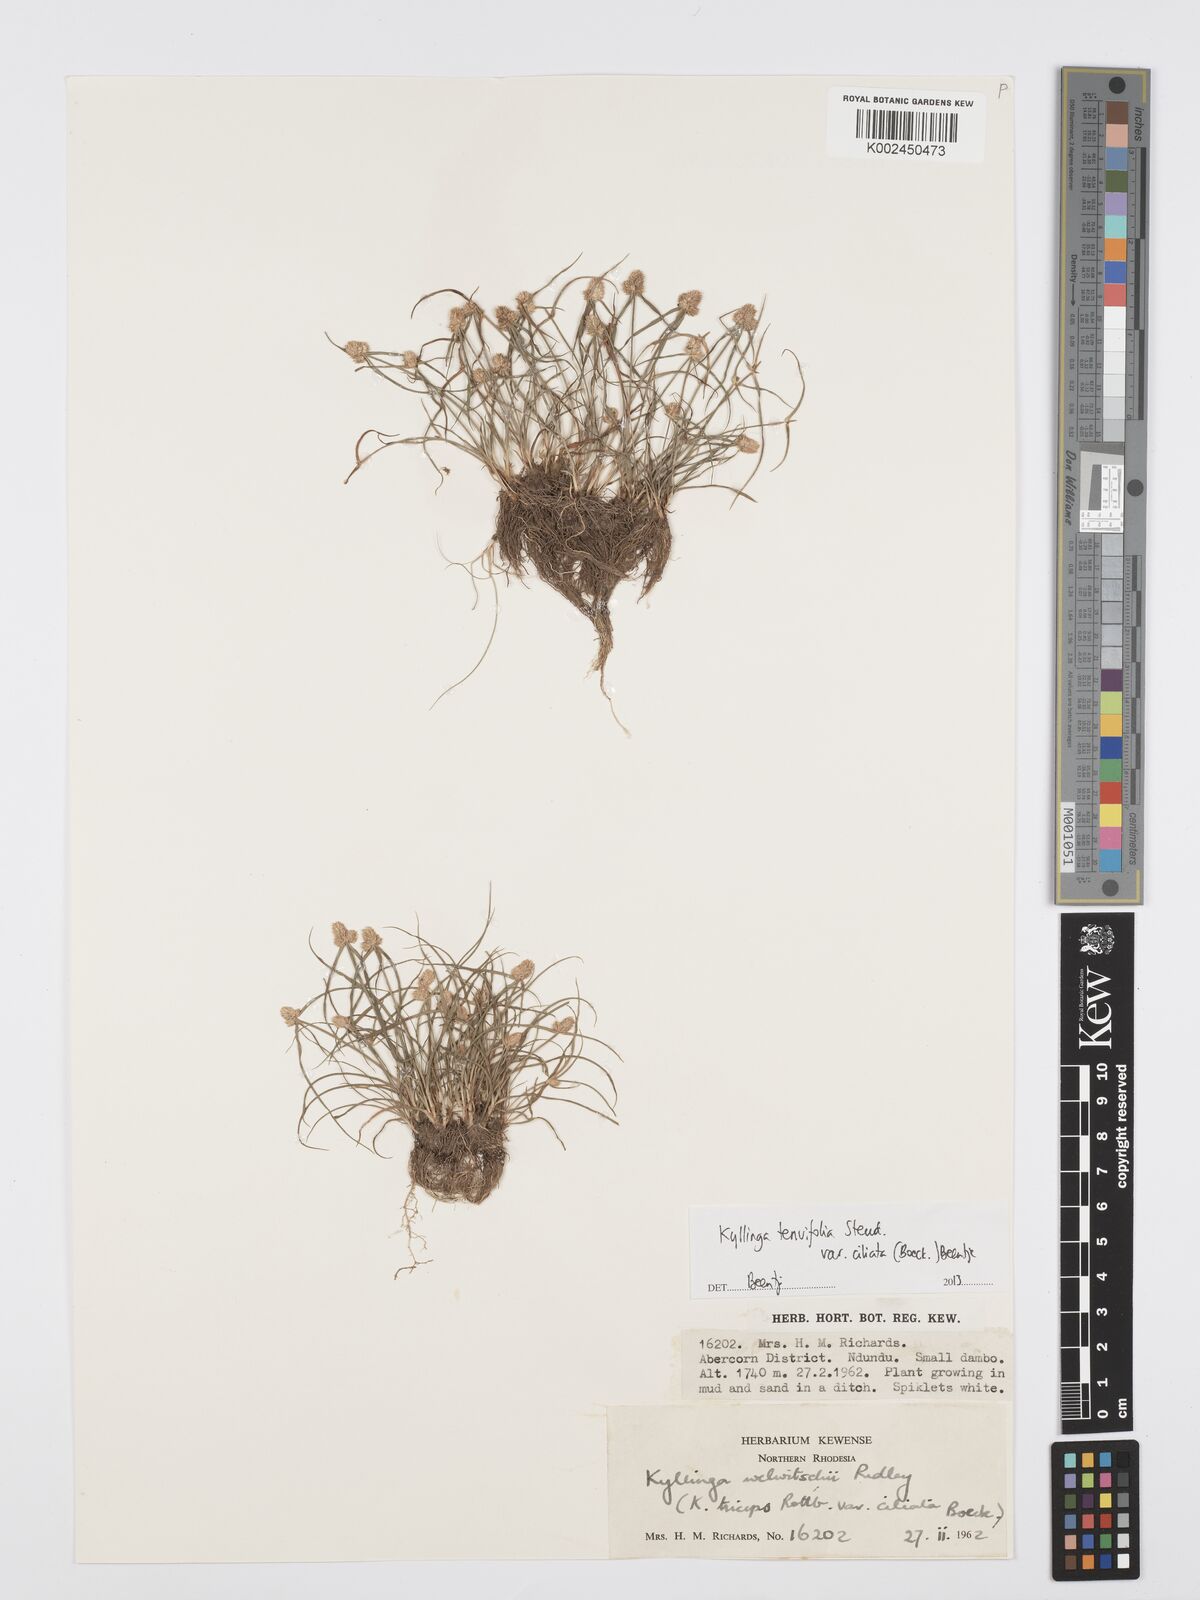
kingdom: Plantae
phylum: Tracheophyta
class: Liliopsida
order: Poales
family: Cyperaceae
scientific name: Cyperaceae
